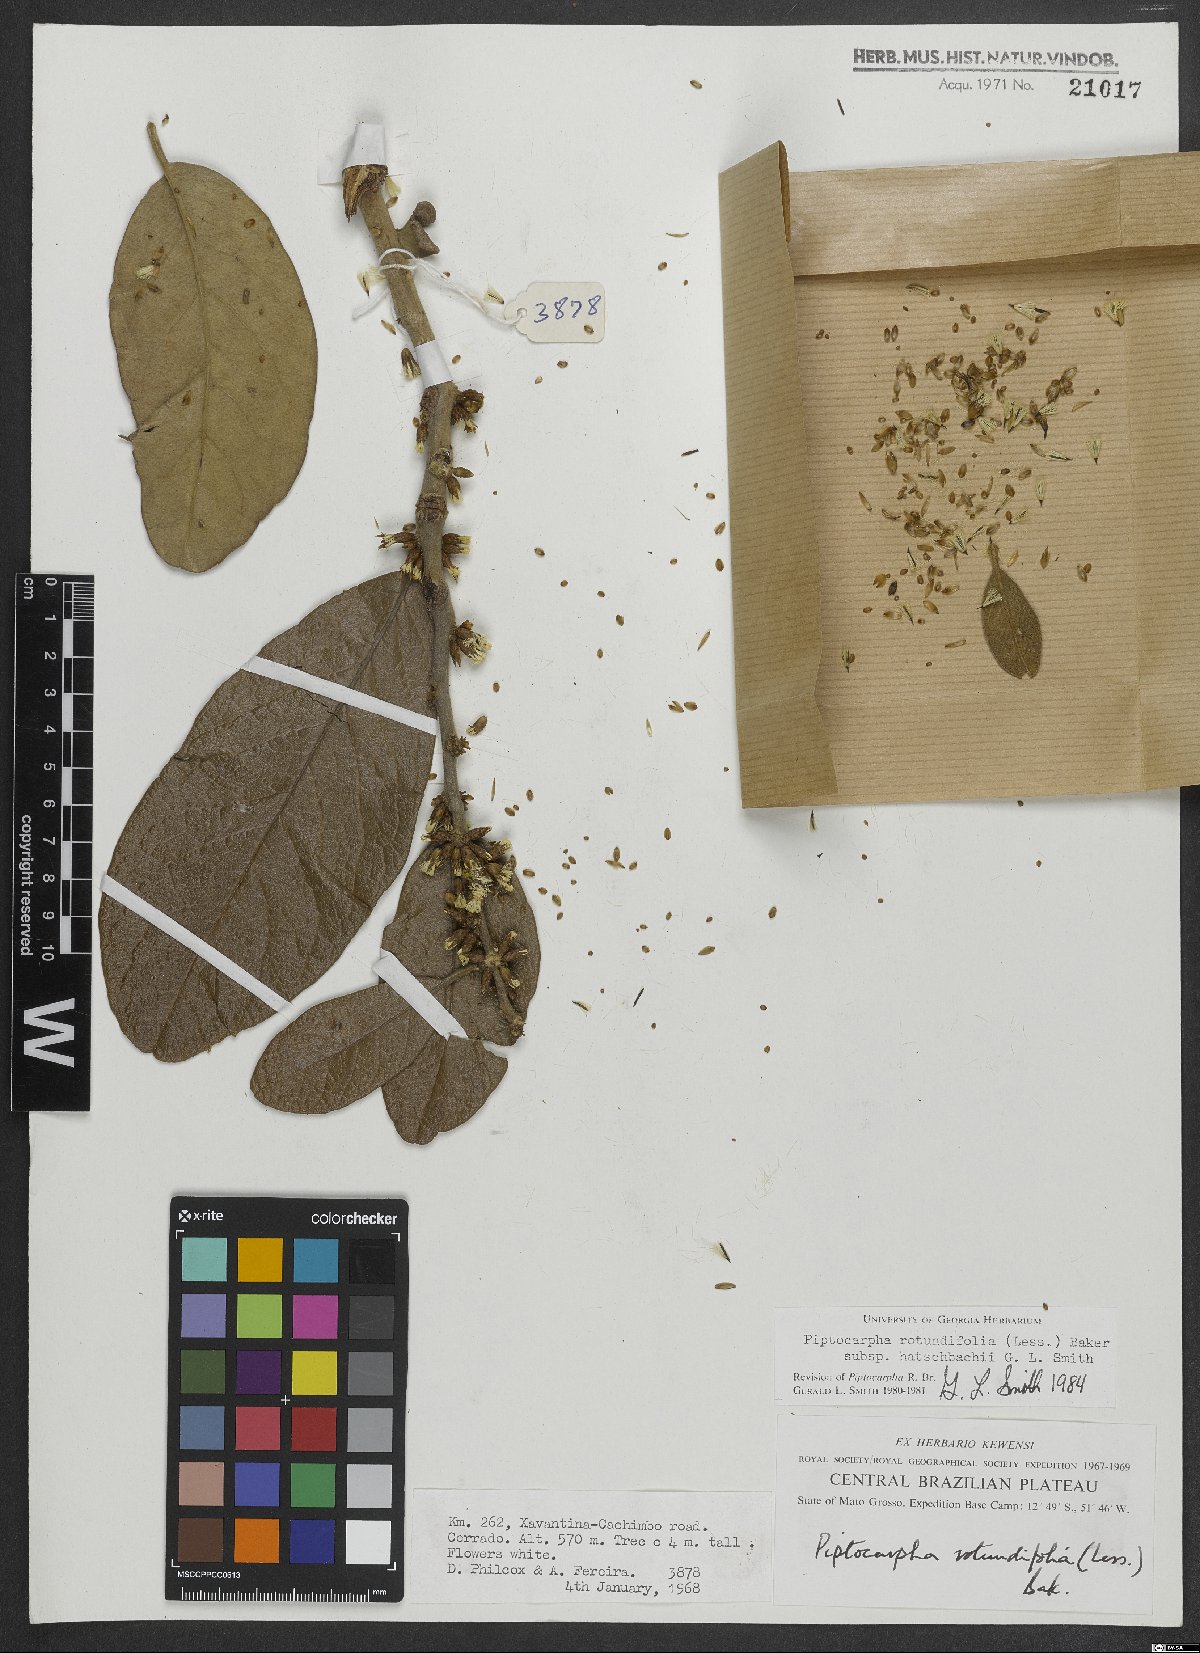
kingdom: Plantae
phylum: Tracheophyta
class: Magnoliopsida
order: Asterales
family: Asteraceae
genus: Piptocarpha
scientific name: Piptocarpha rotundifolia
